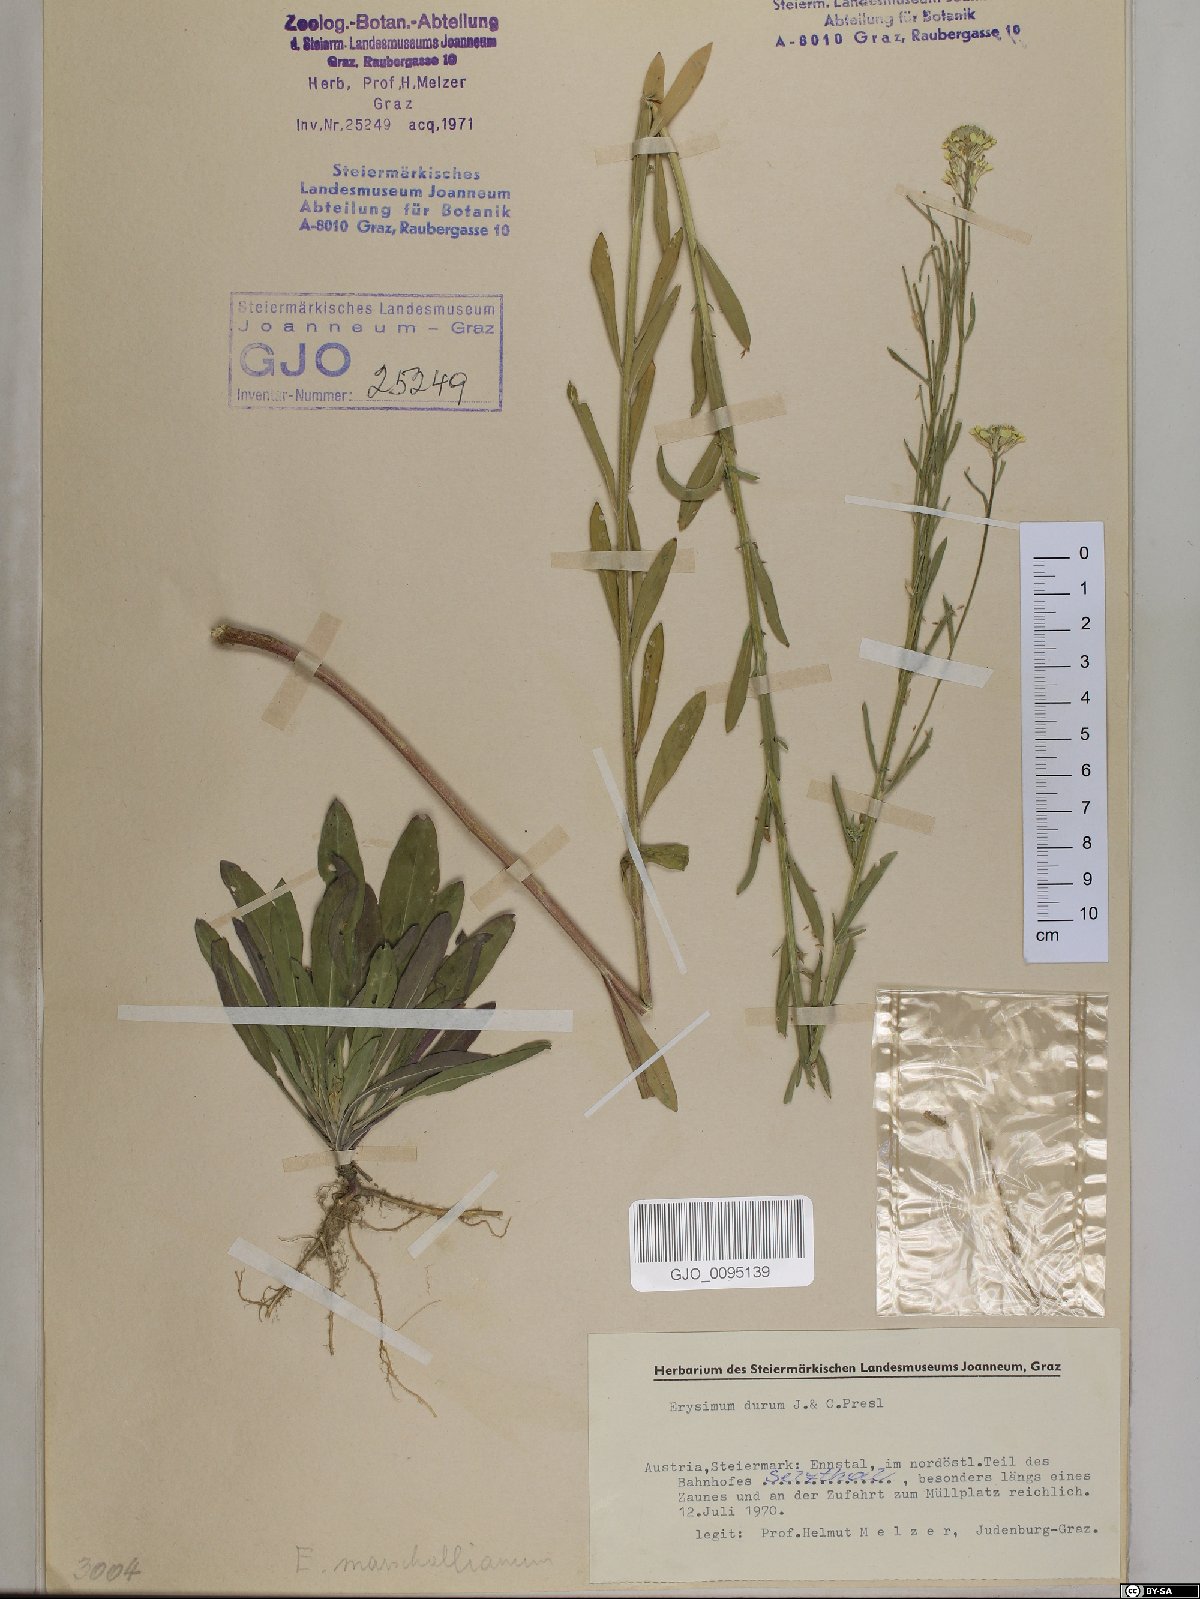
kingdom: Plantae
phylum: Tracheophyta
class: Magnoliopsida
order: Brassicales
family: Brassicaceae
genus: Erysimum
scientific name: Erysimum marschallianum
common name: Hard wallflower
